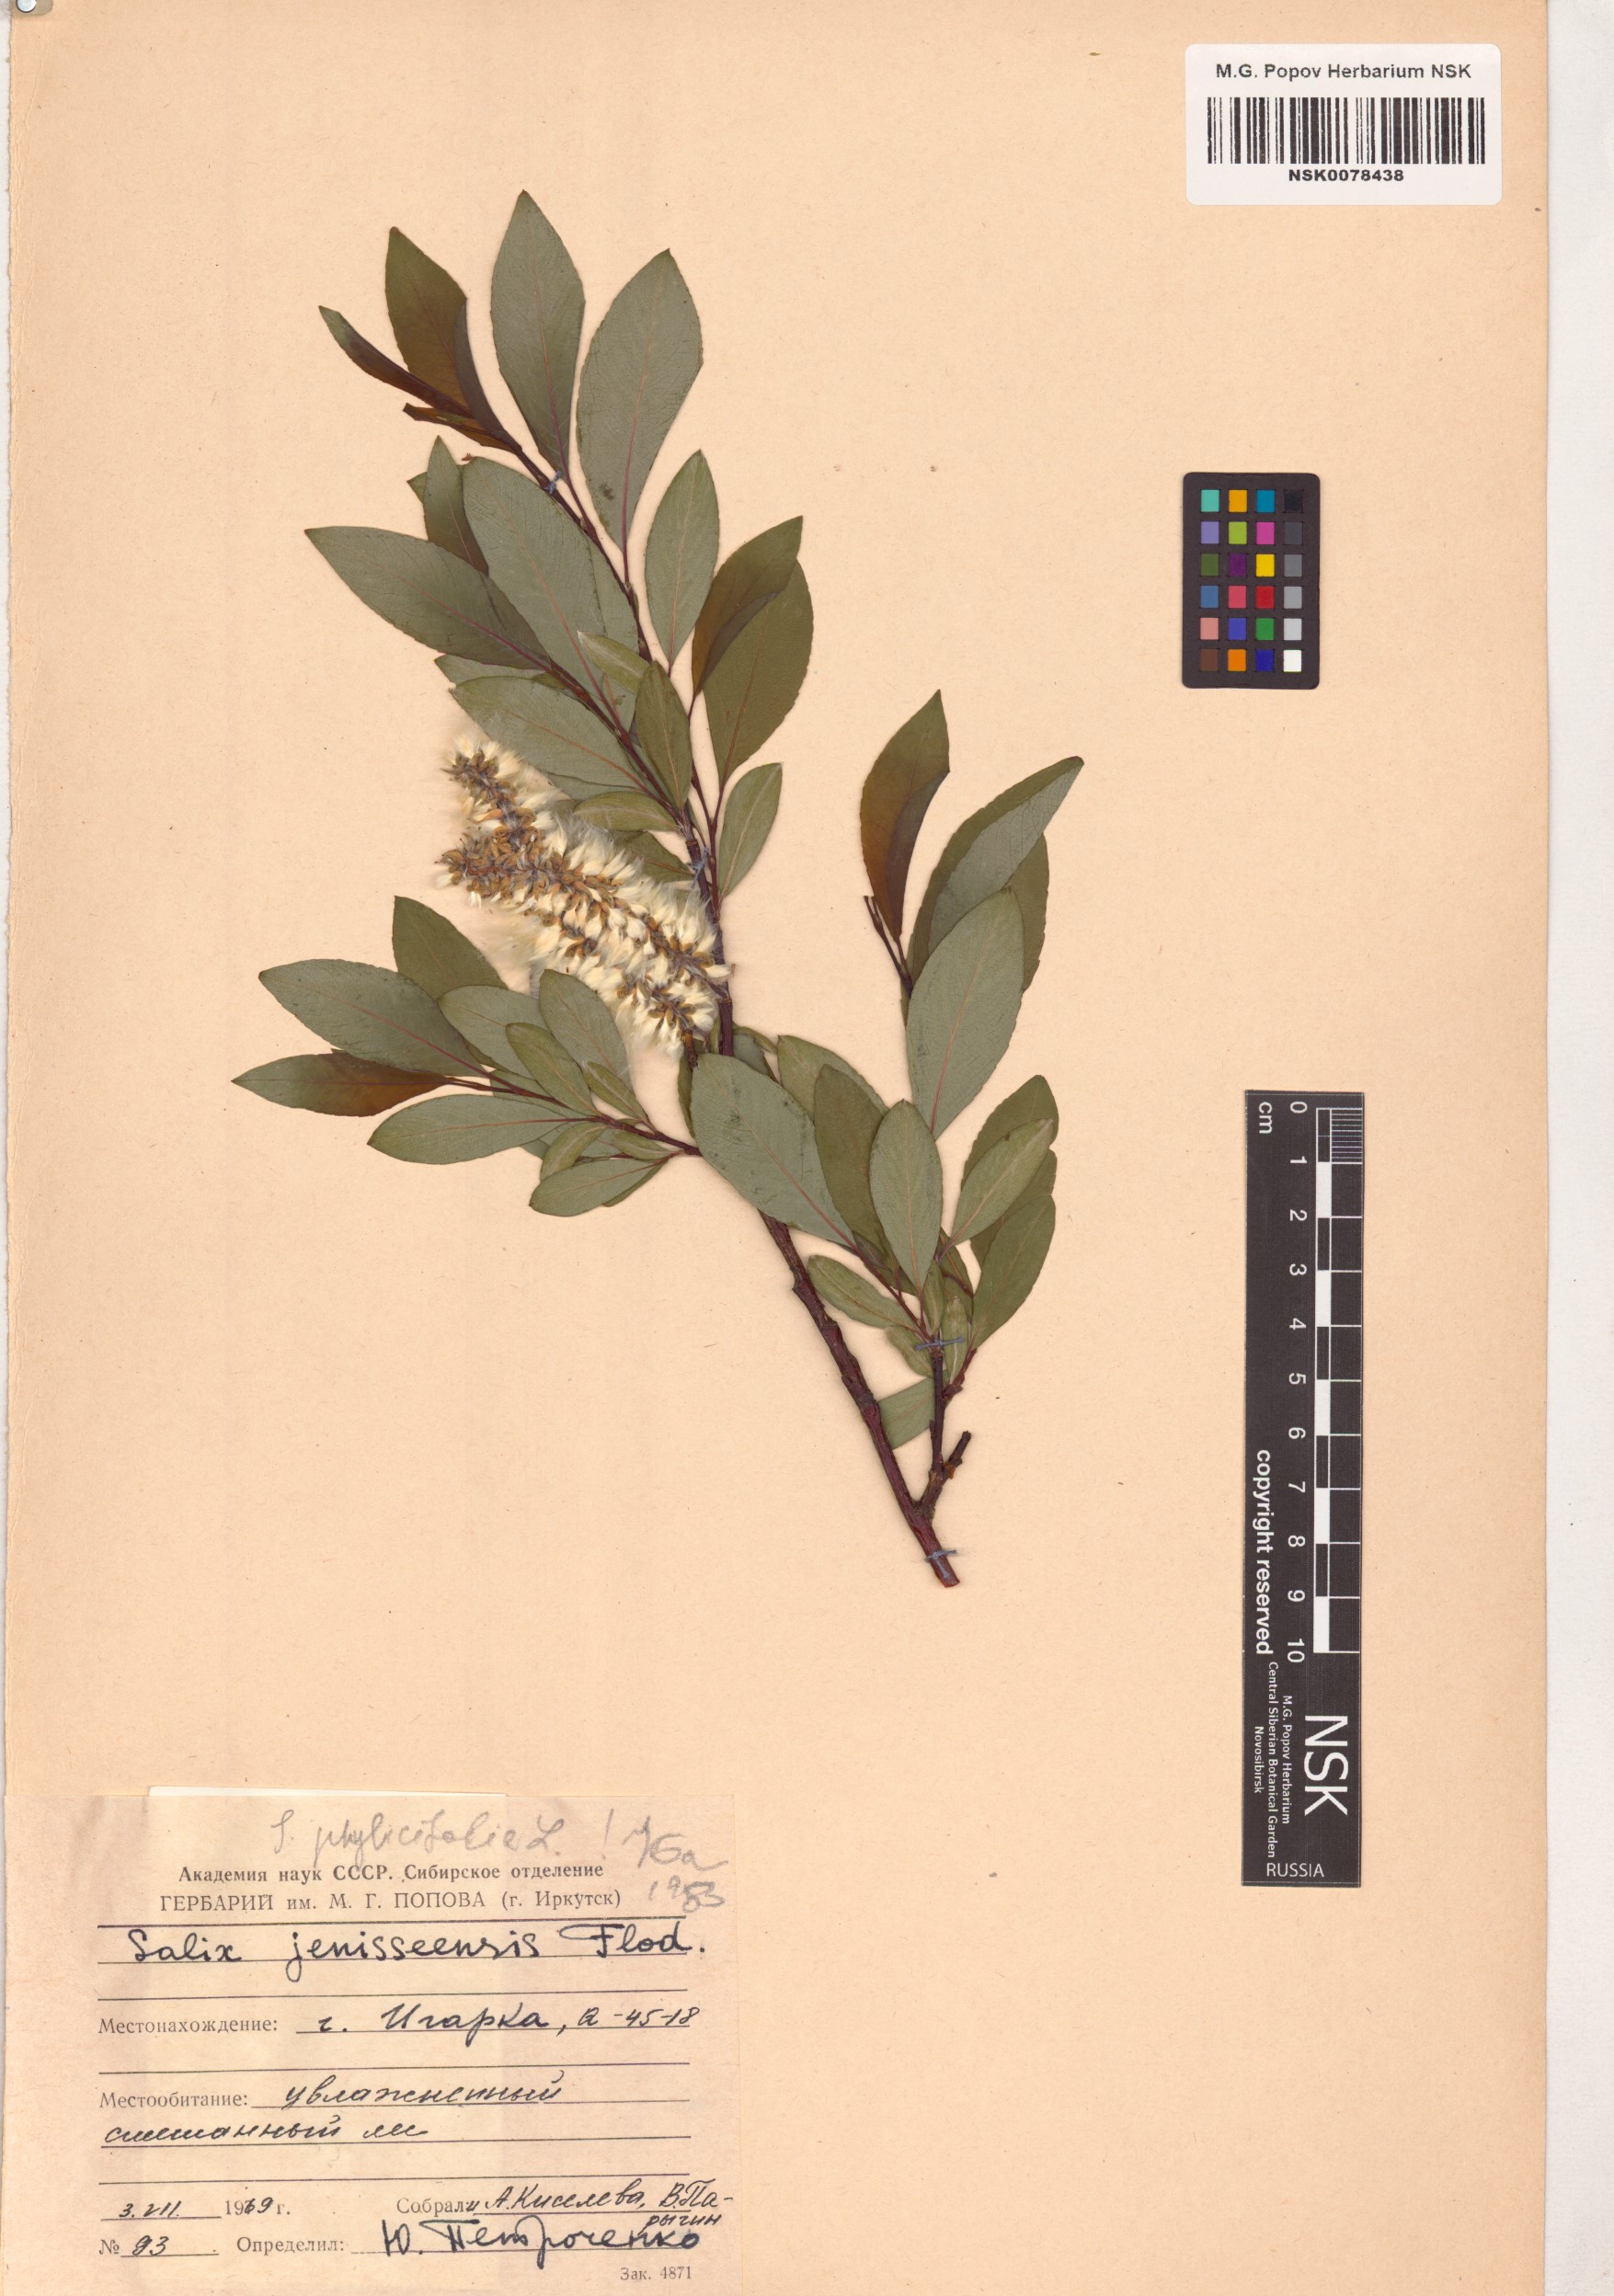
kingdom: Plantae
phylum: Tracheophyta
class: Magnoliopsida
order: Malpighiales
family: Salicaceae
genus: Salix
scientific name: Salix phylicifolia
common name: Tea-leaved willow
